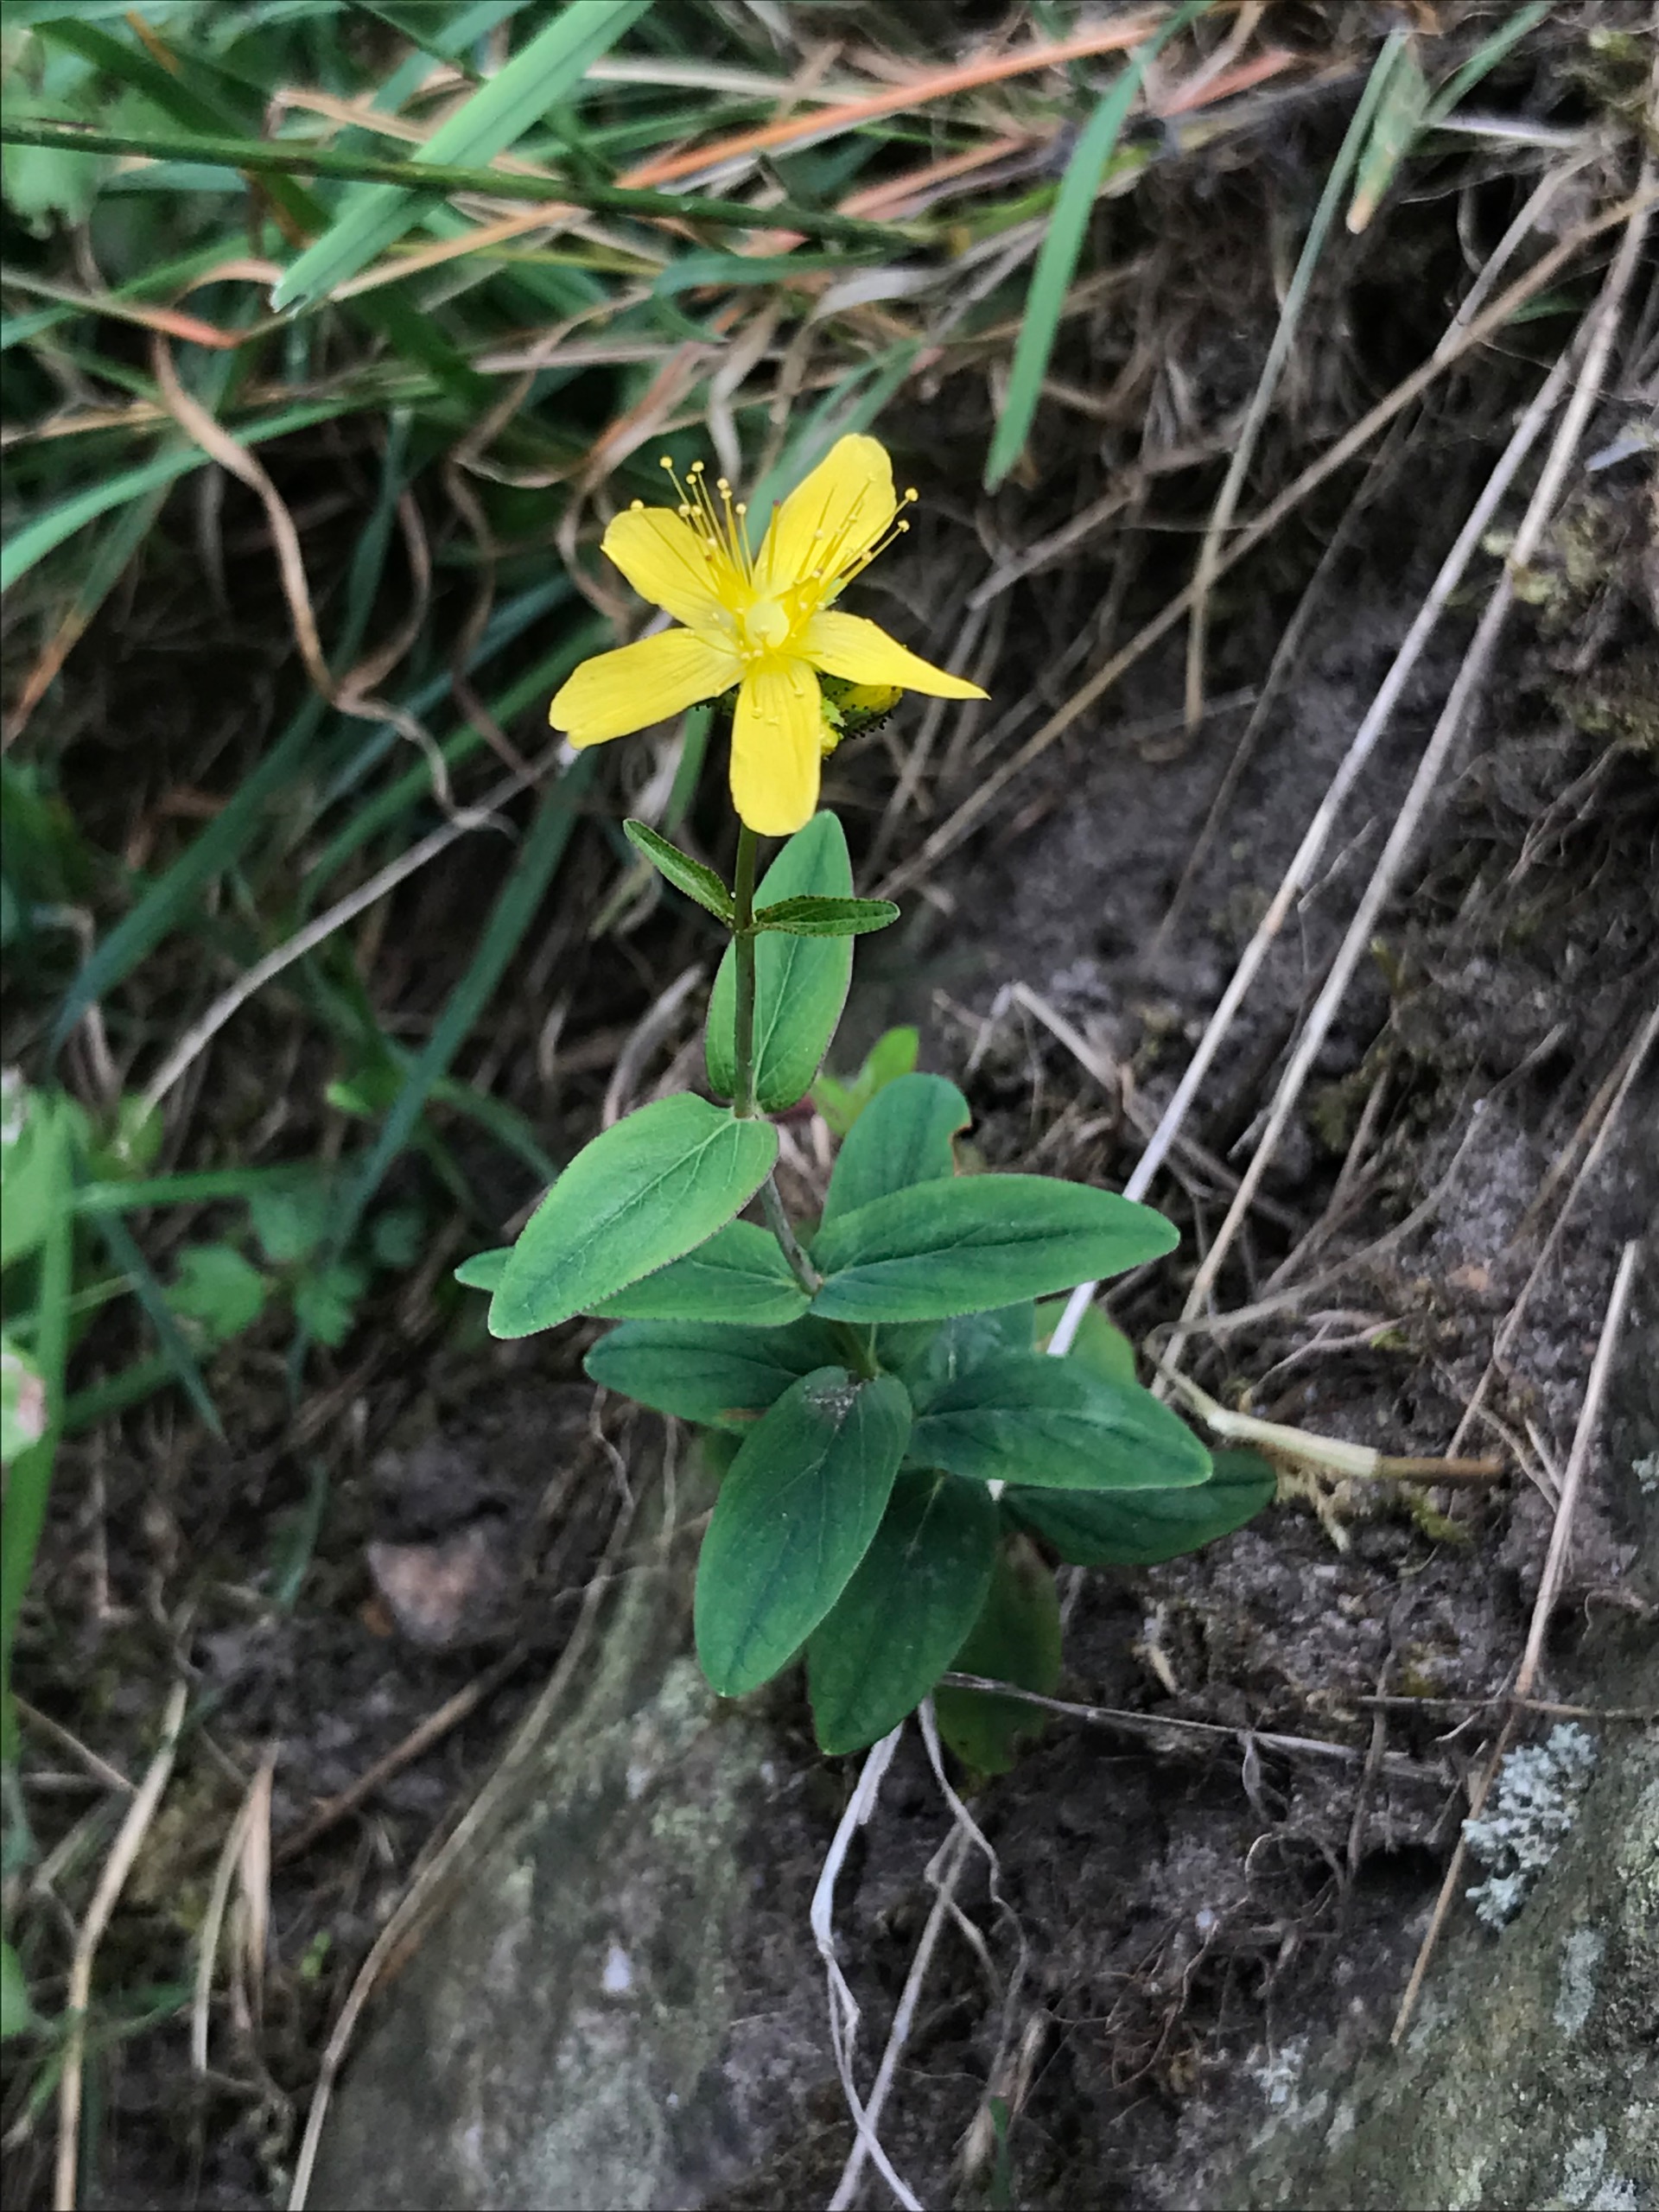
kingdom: Plantae
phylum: Tracheophyta
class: Magnoliopsida
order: Malpighiales
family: Hypericaceae
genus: Hypericum
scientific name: Hypericum montanum
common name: Bjerg-perikon
